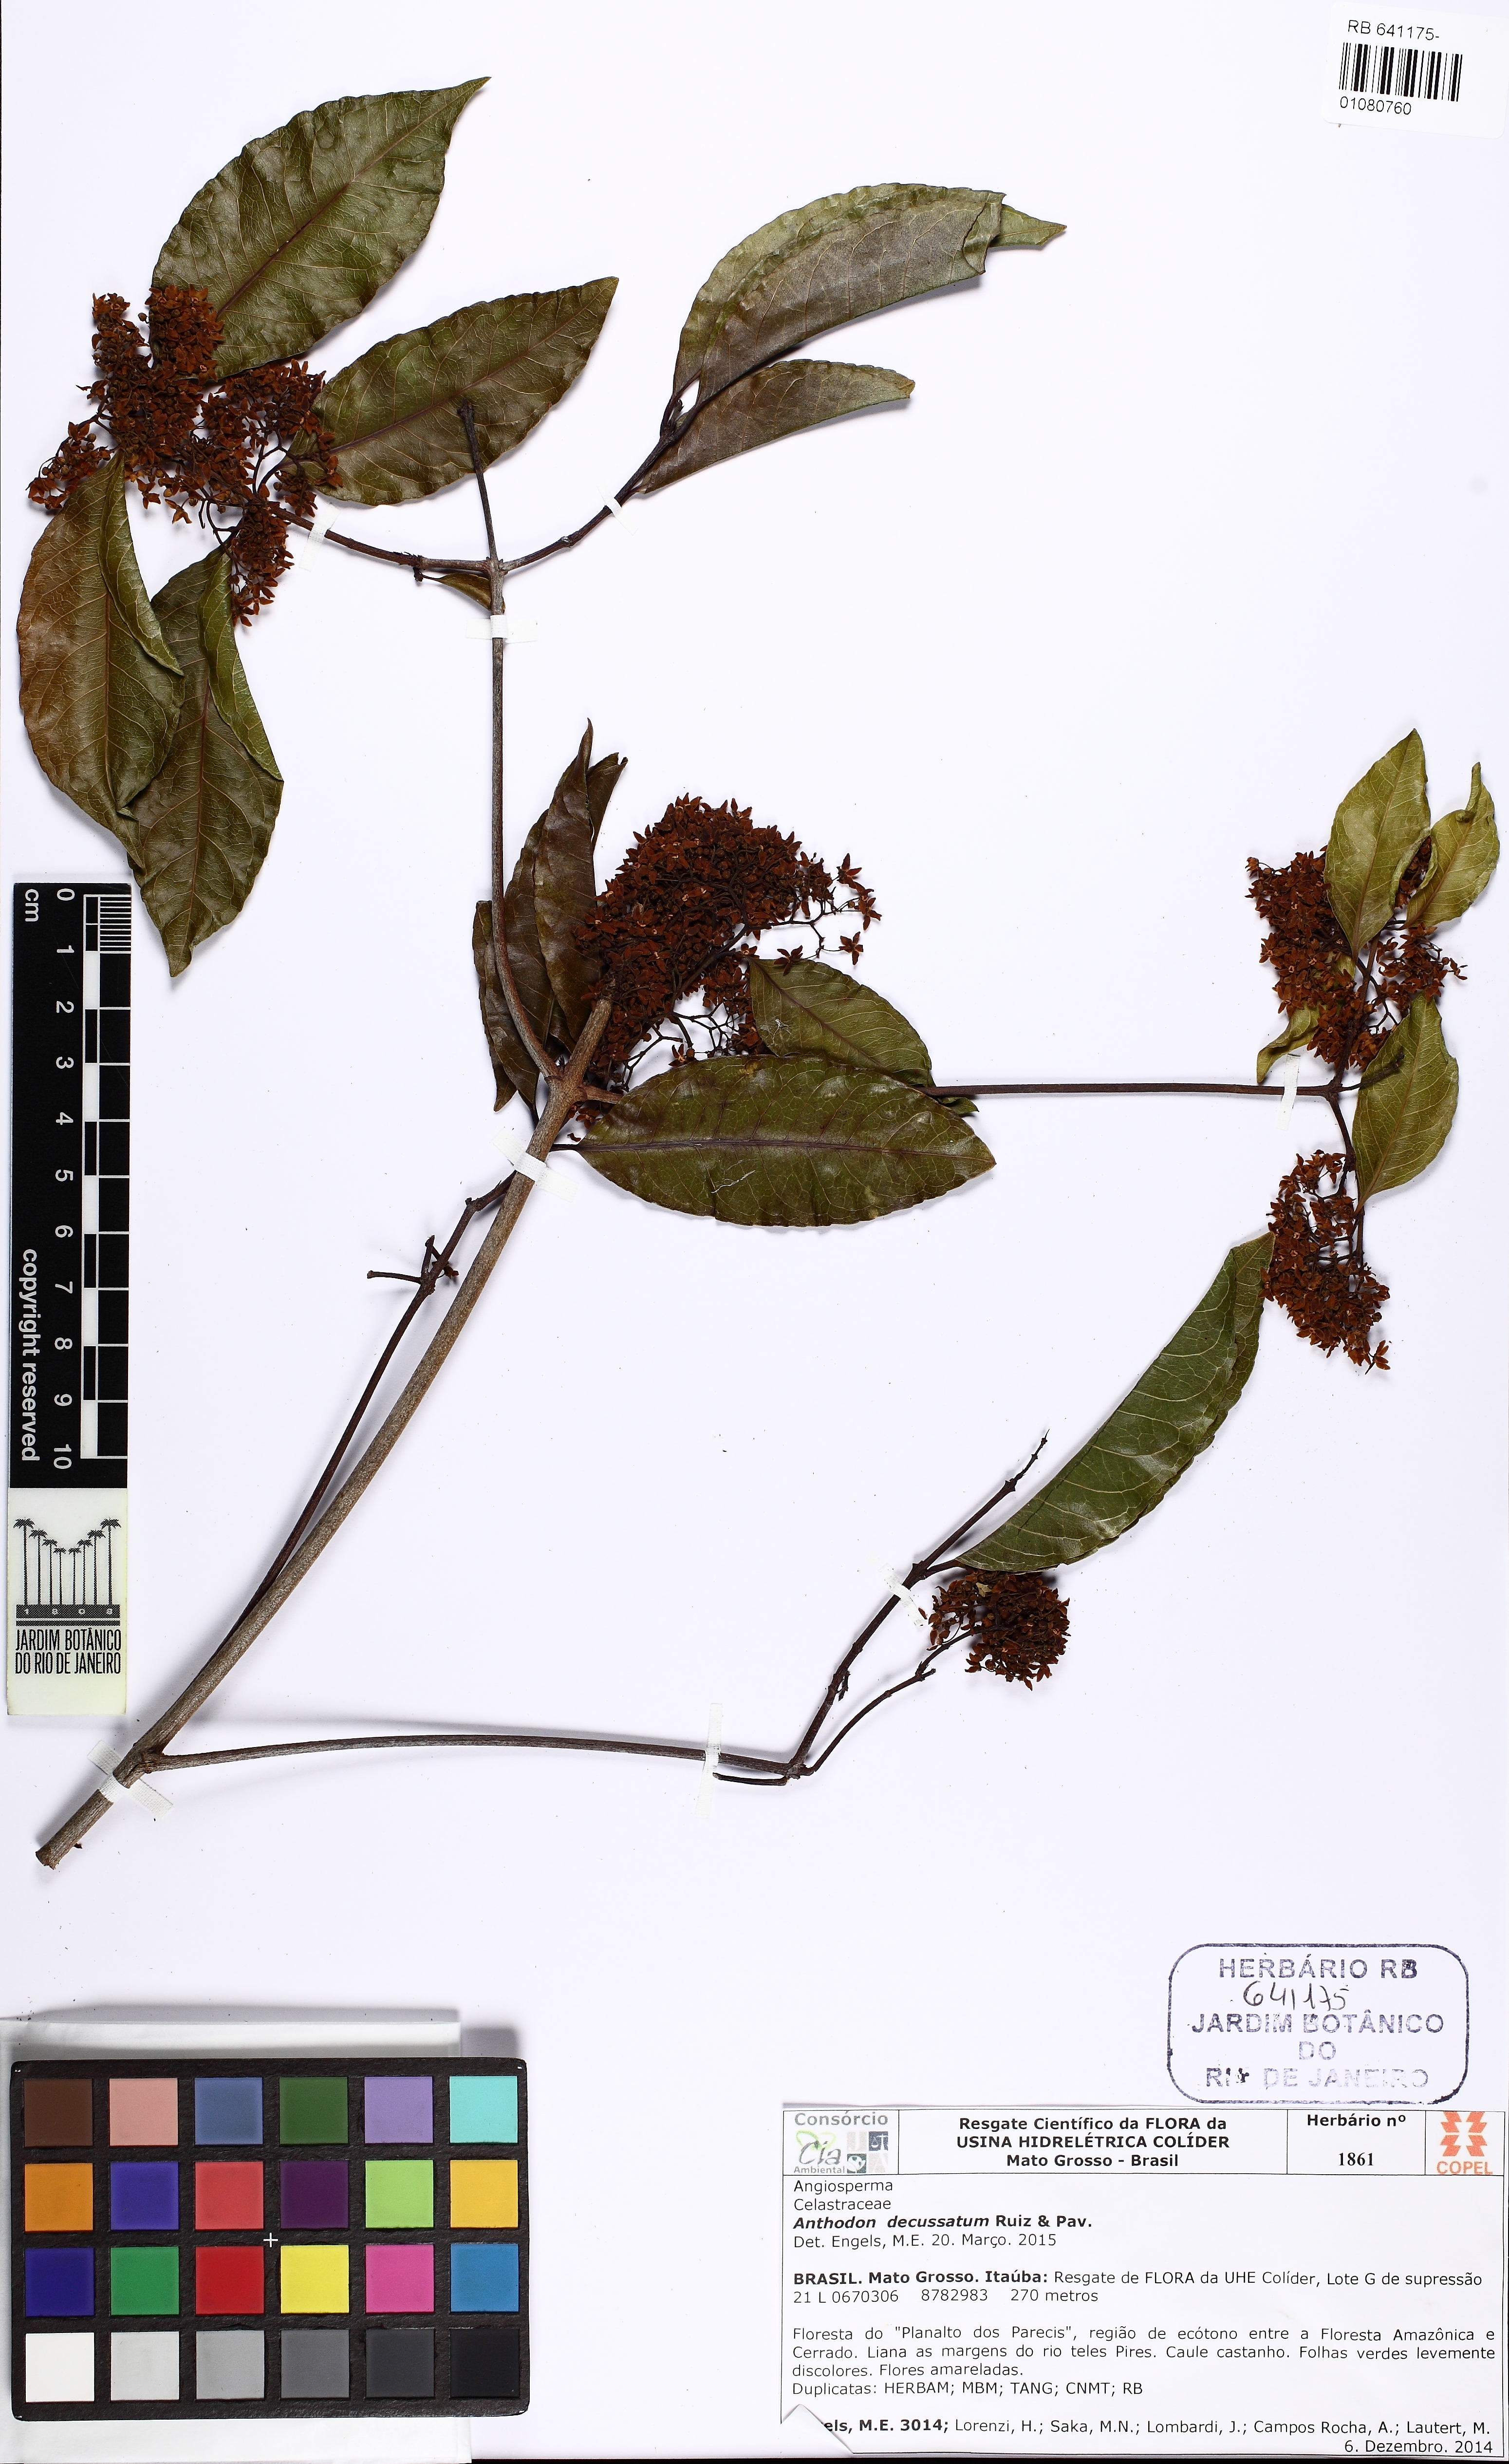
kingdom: Plantae
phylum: Tracheophyta
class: Magnoliopsida
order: Celastrales
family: Celastraceae
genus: Anthodon
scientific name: Anthodon decussatum
